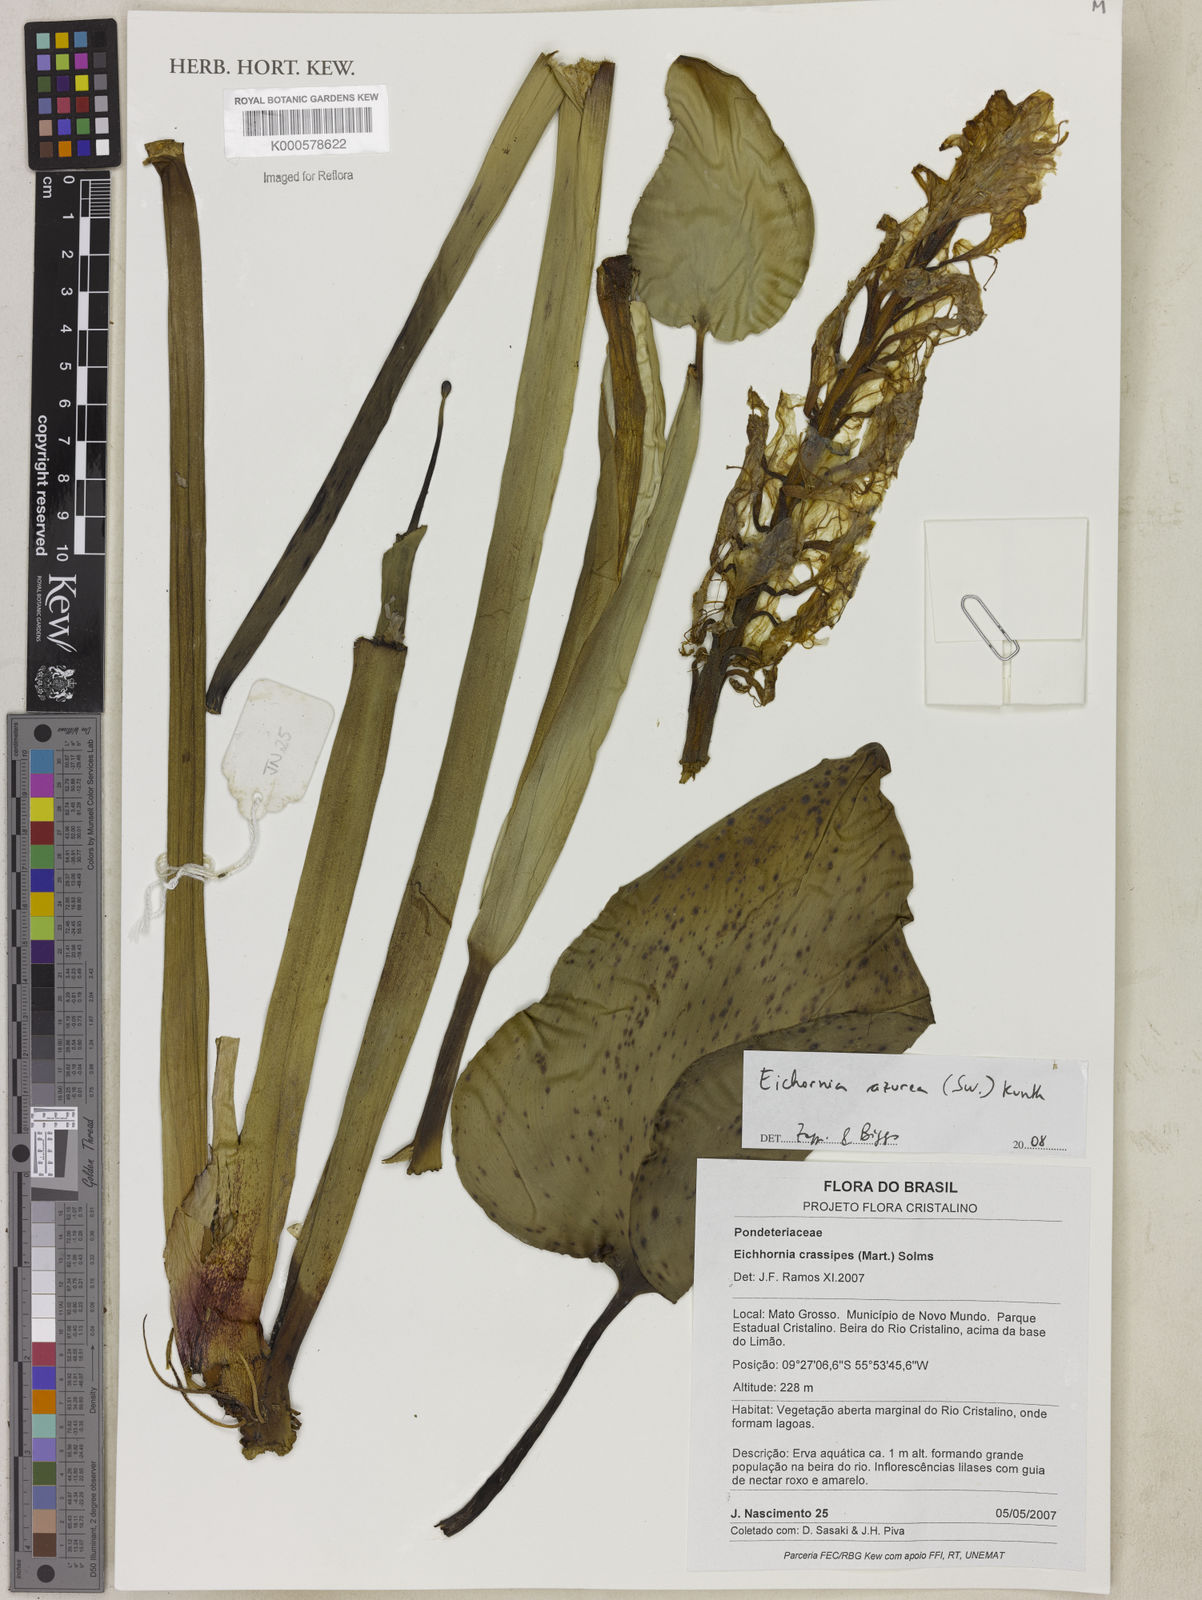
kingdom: Plantae
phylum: Tracheophyta
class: Liliopsida
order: Commelinales
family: Pontederiaceae
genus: Pontederia
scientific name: Pontederia crassipes
